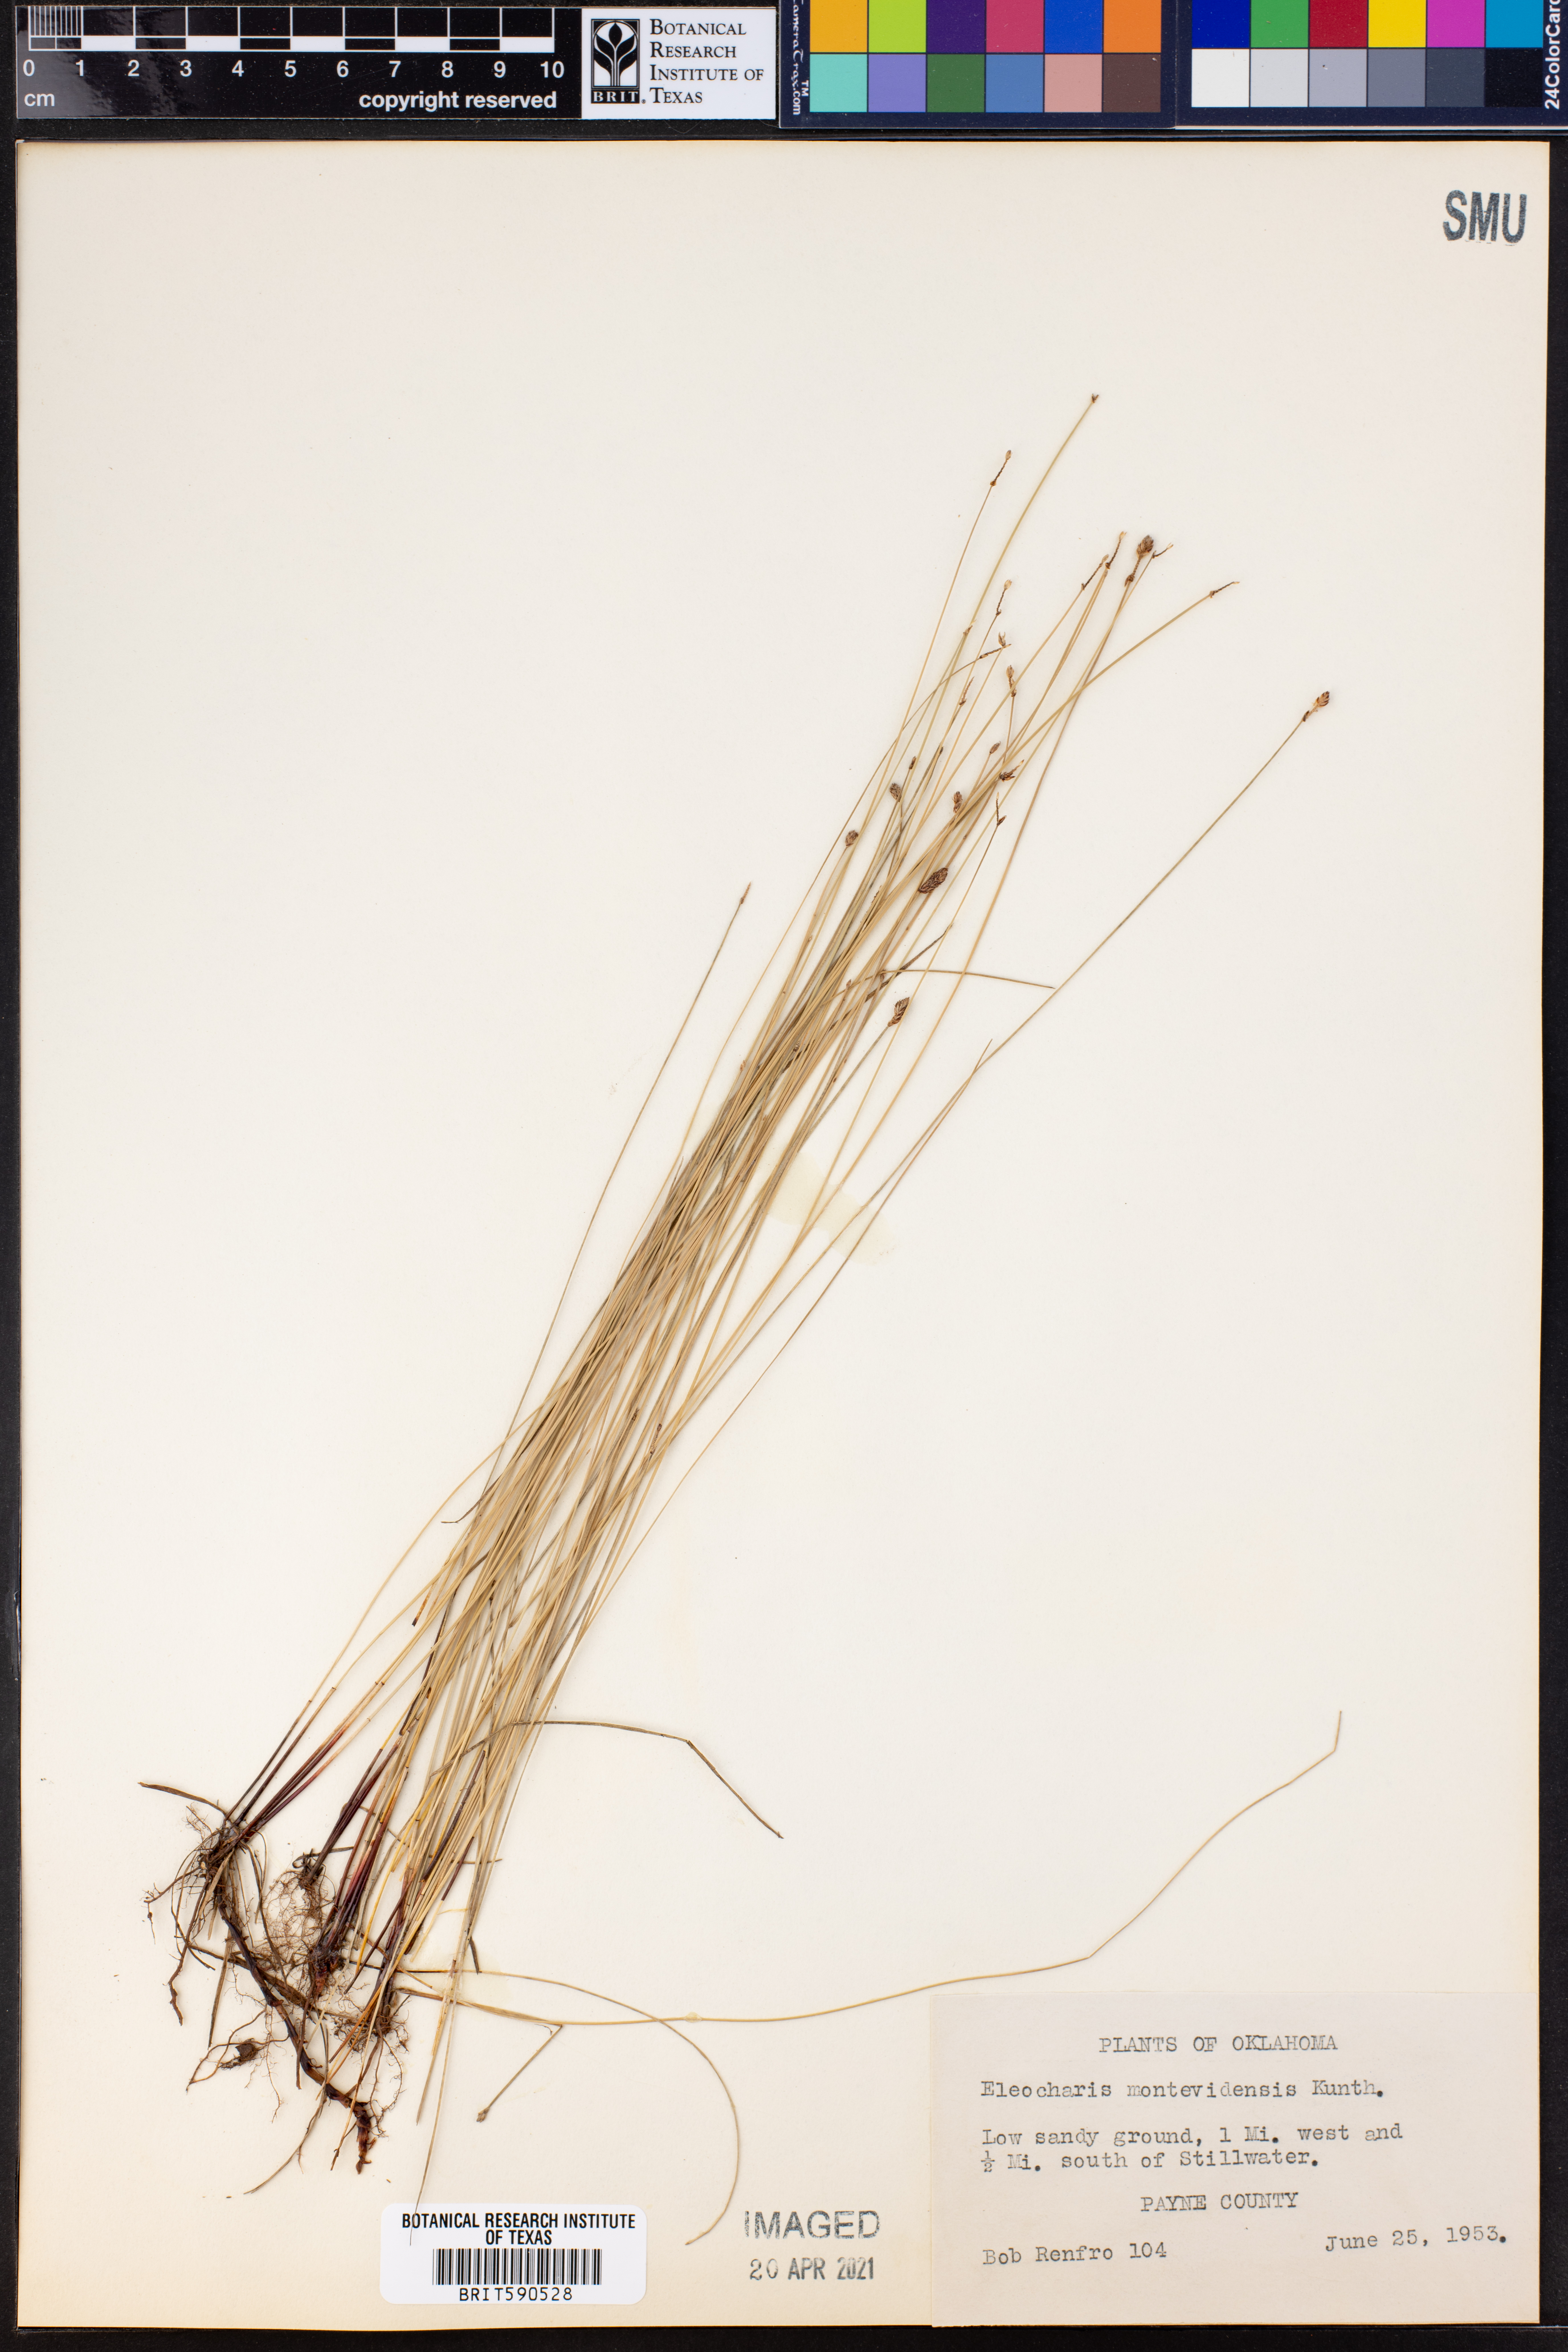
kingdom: Plantae
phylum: Tracheophyta
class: Liliopsida
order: Poales
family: Cyperaceae
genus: Eleocharis
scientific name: Eleocharis montevidensis
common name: Sand spike-rush
